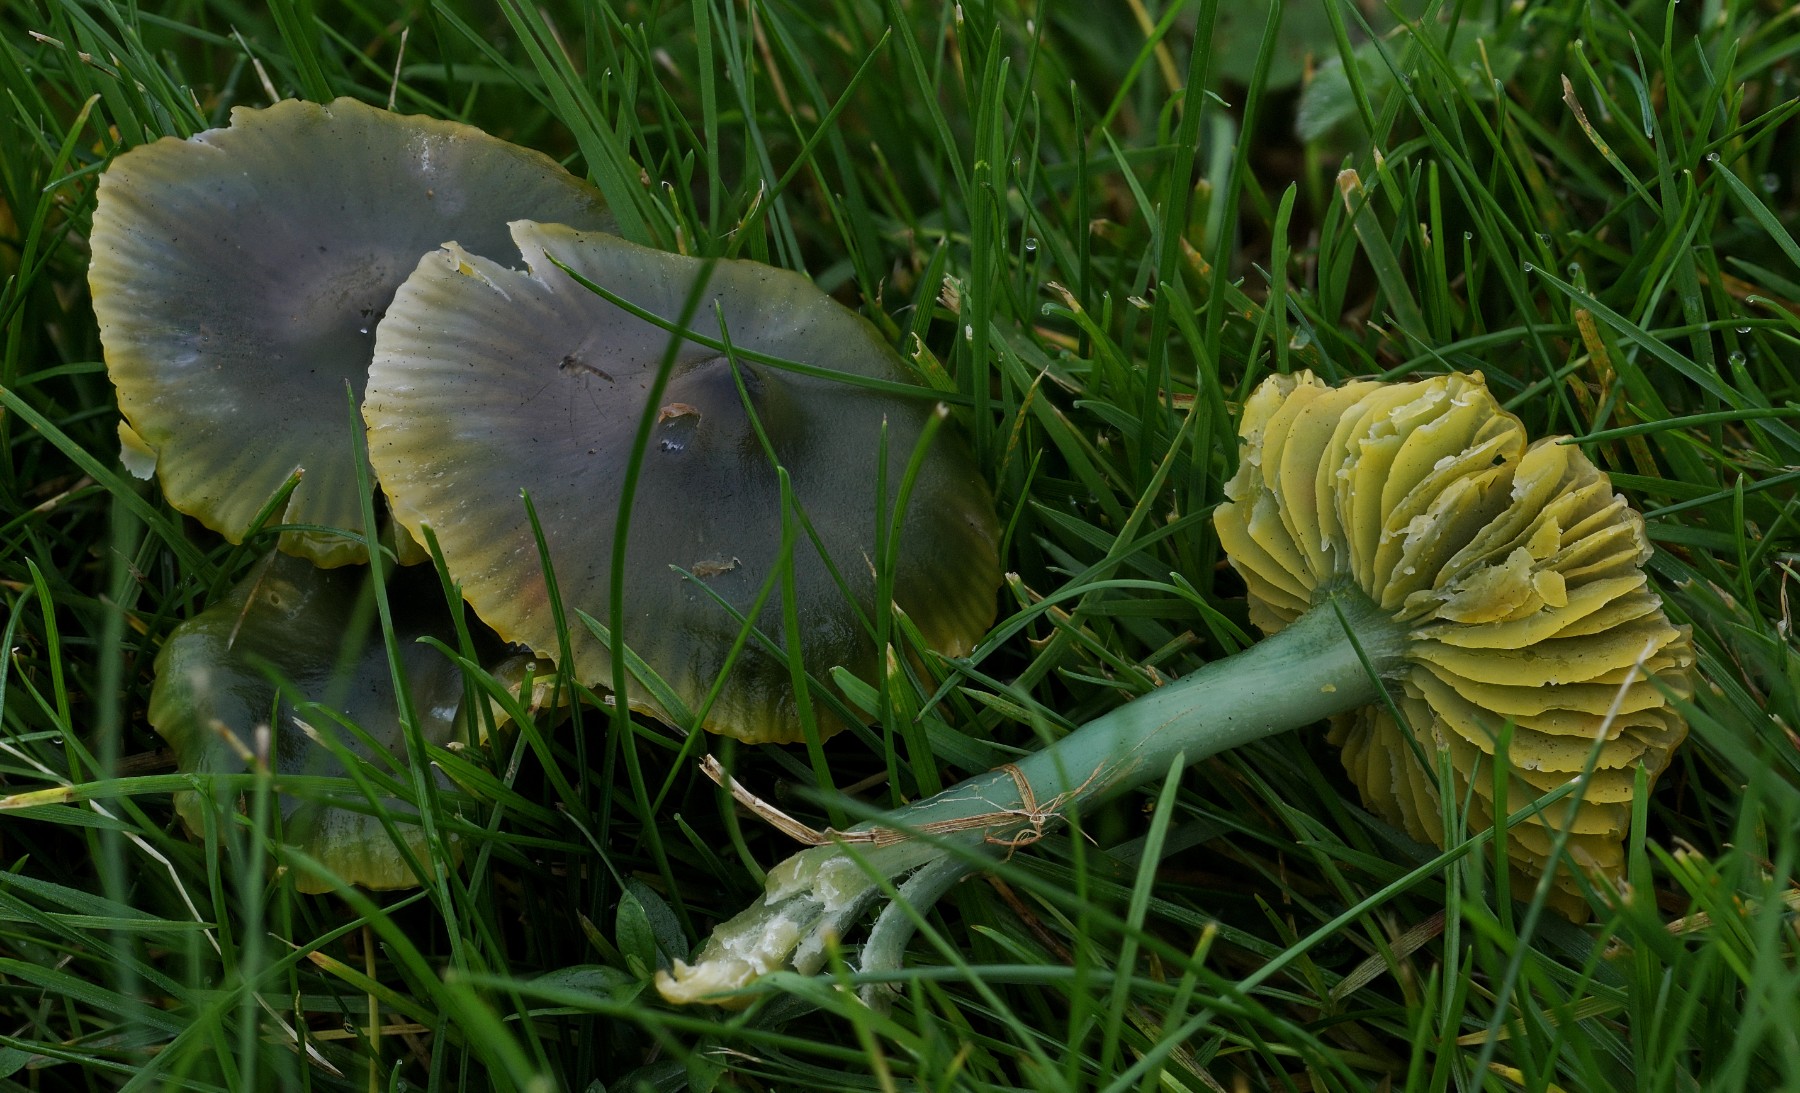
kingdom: Fungi
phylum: Basidiomycota
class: Agaricomycetes
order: Agaricales
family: Hygrophoraceae
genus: Gliophorus
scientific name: Gliophorus psittacinus
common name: papegøje-vokshat
